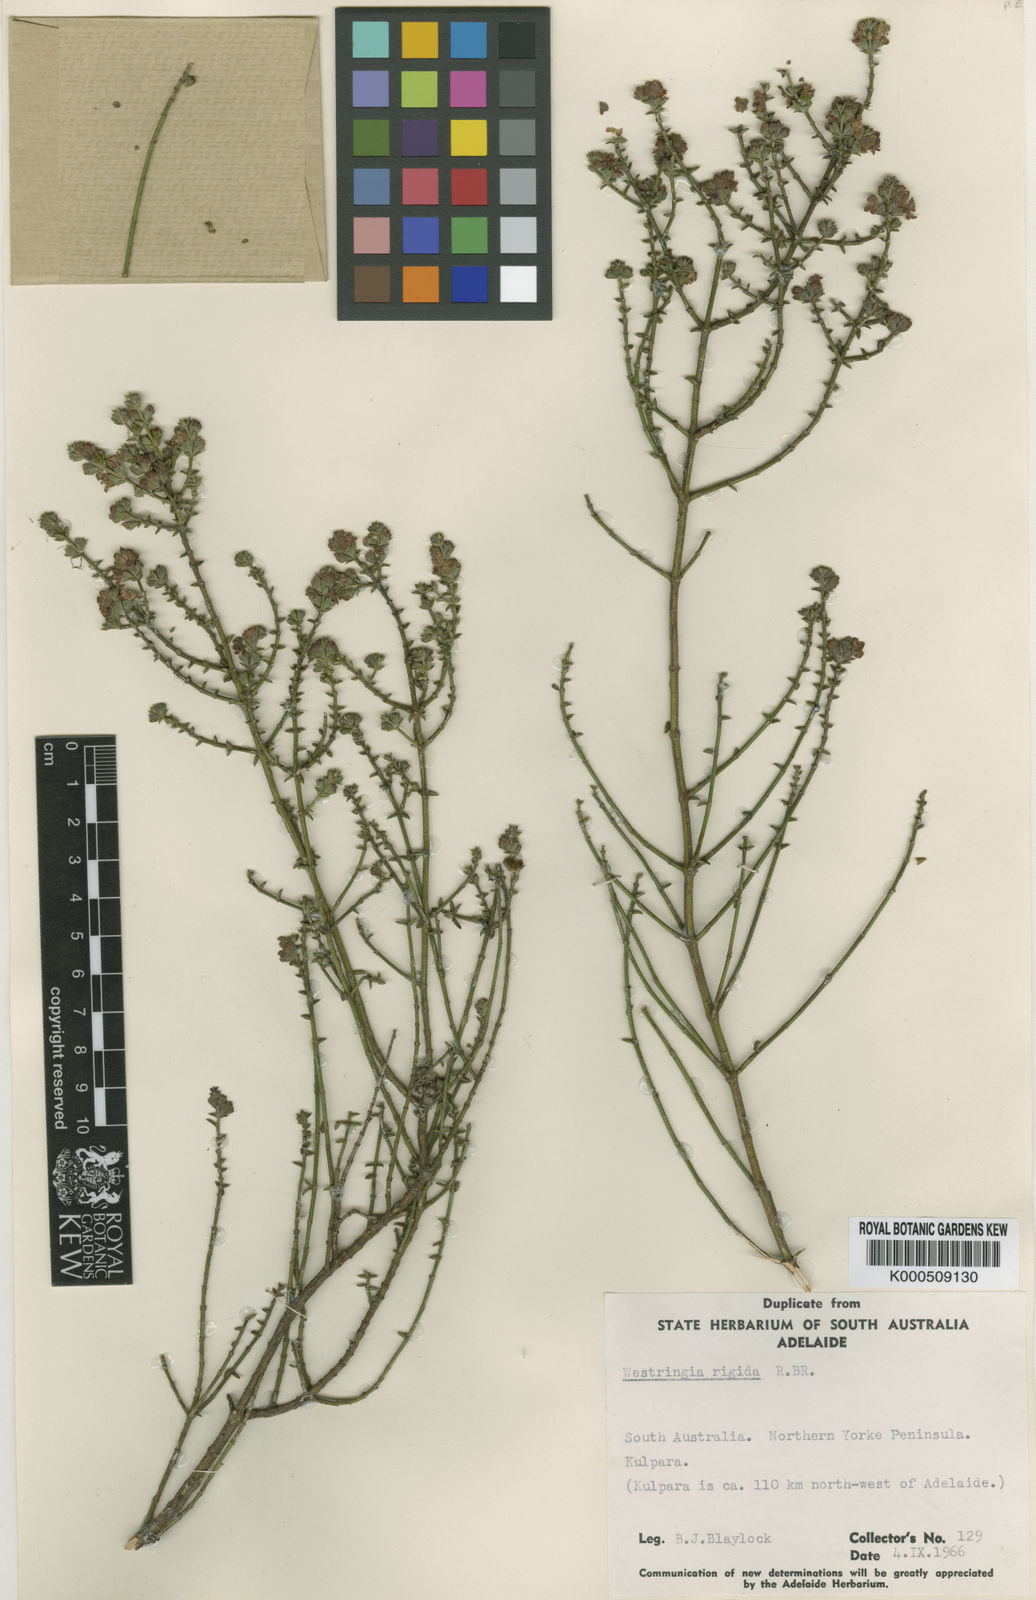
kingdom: Plantae
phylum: Tracheophyta
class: Magnoliopsida
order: Lamiales
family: Lamiaceae
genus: Westringia
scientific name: Westringia rigida
